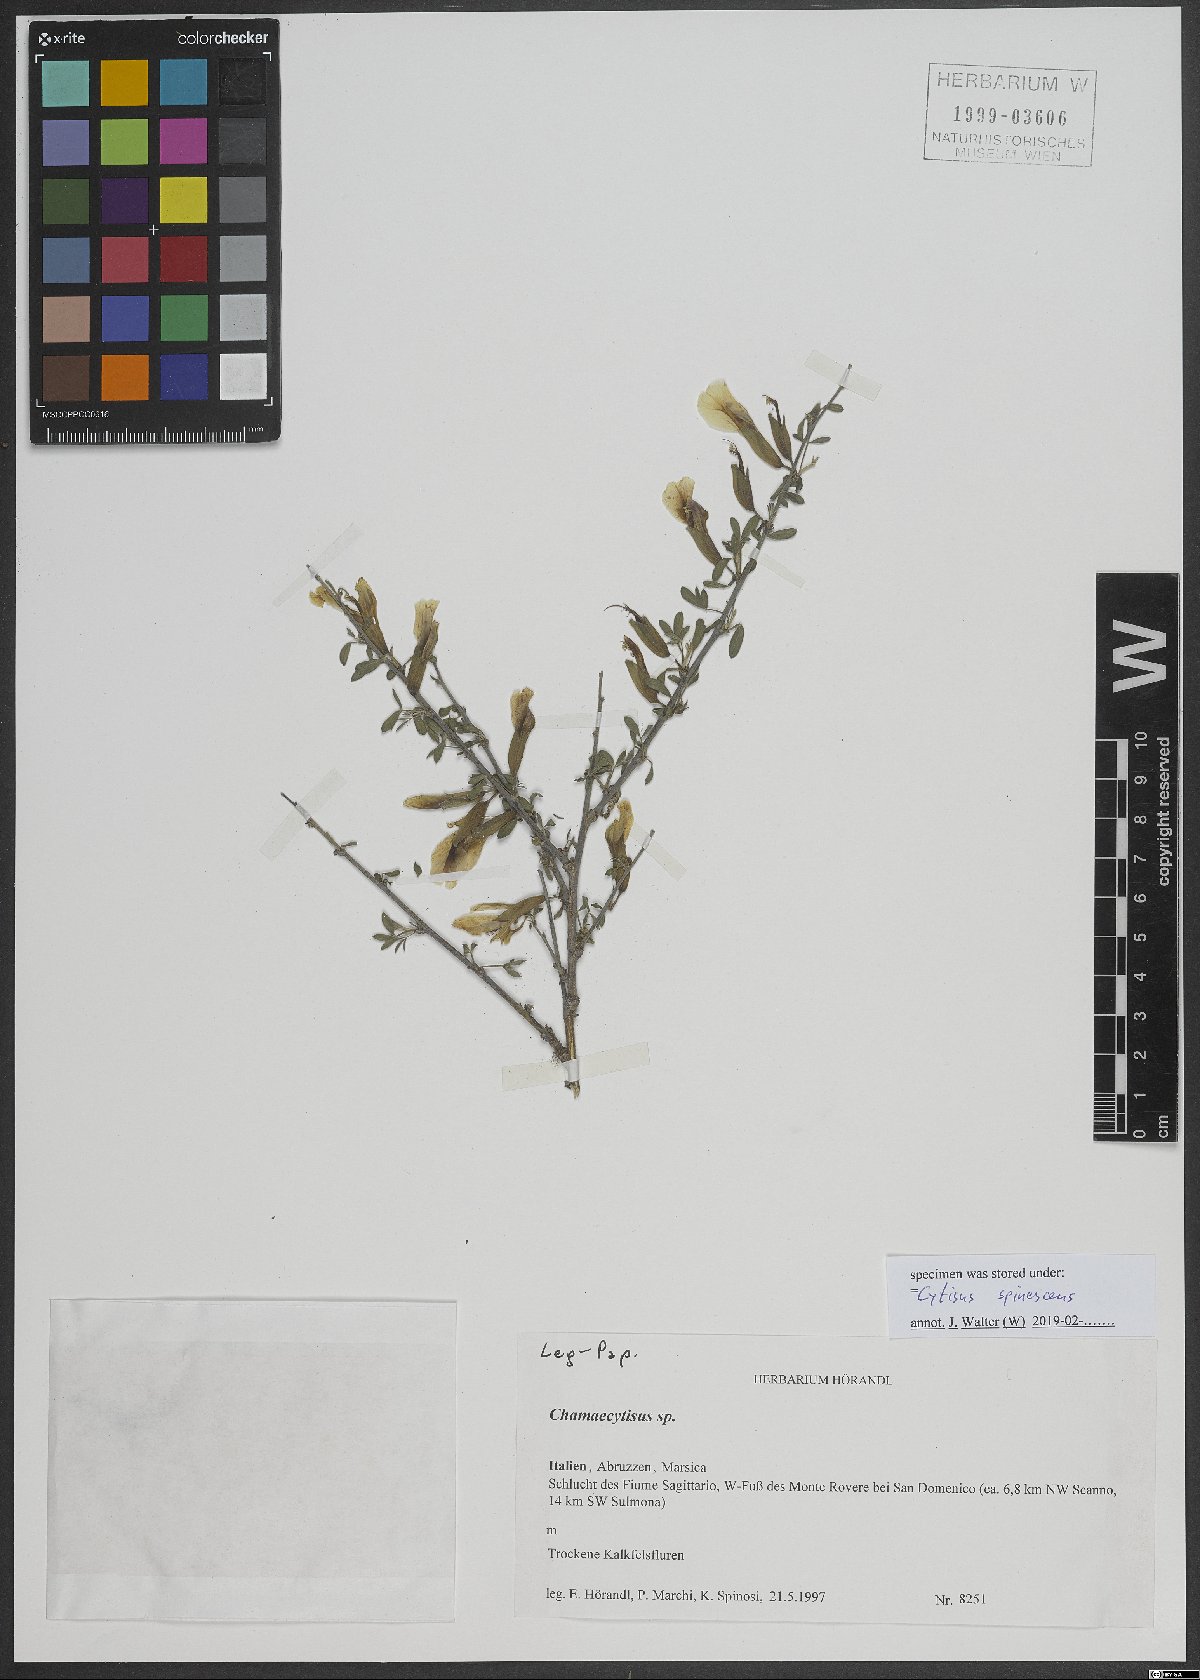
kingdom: Plantae
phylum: Tracheophyta
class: Magnoliopsida
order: Fabales
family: Fabaceae
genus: Chamaecytisus
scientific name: Chamaecytisus spinescens
